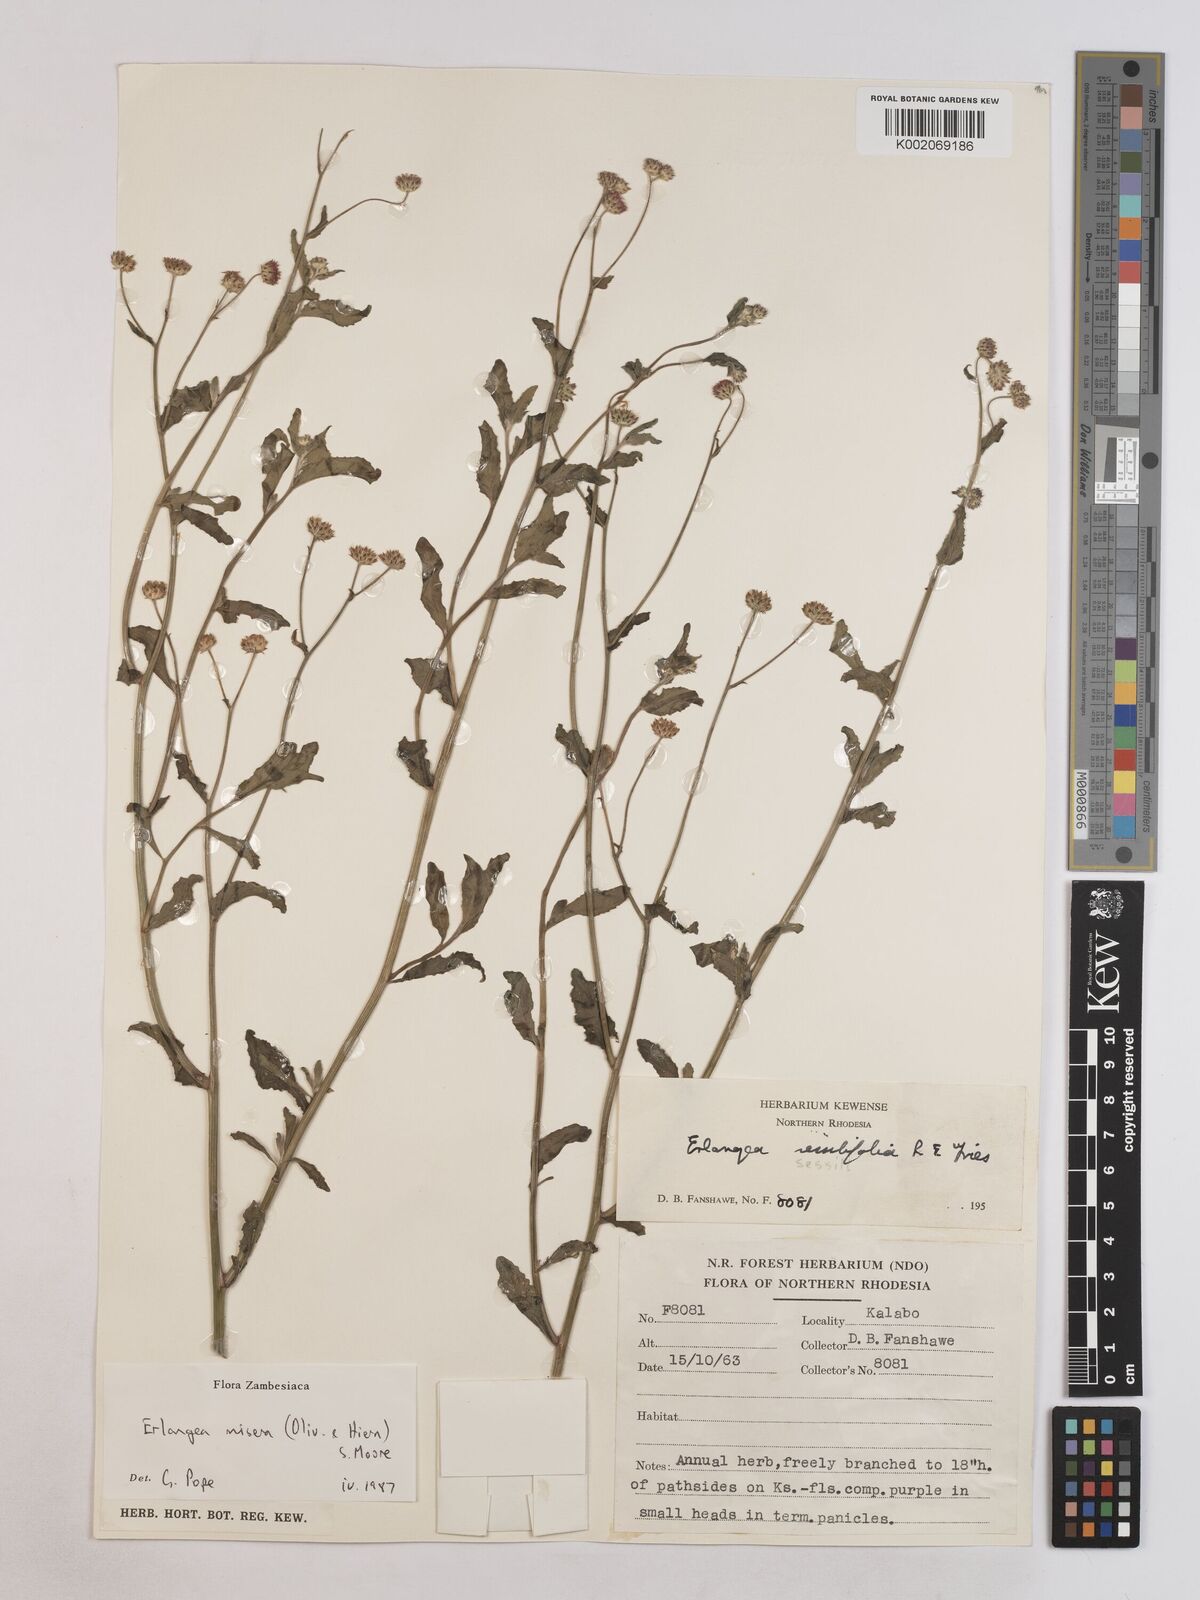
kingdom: Plantae
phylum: Tracheophyta
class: Magnoliopsida
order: Asterales
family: Asteraceae
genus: Erlangea
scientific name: Erlangea misera
